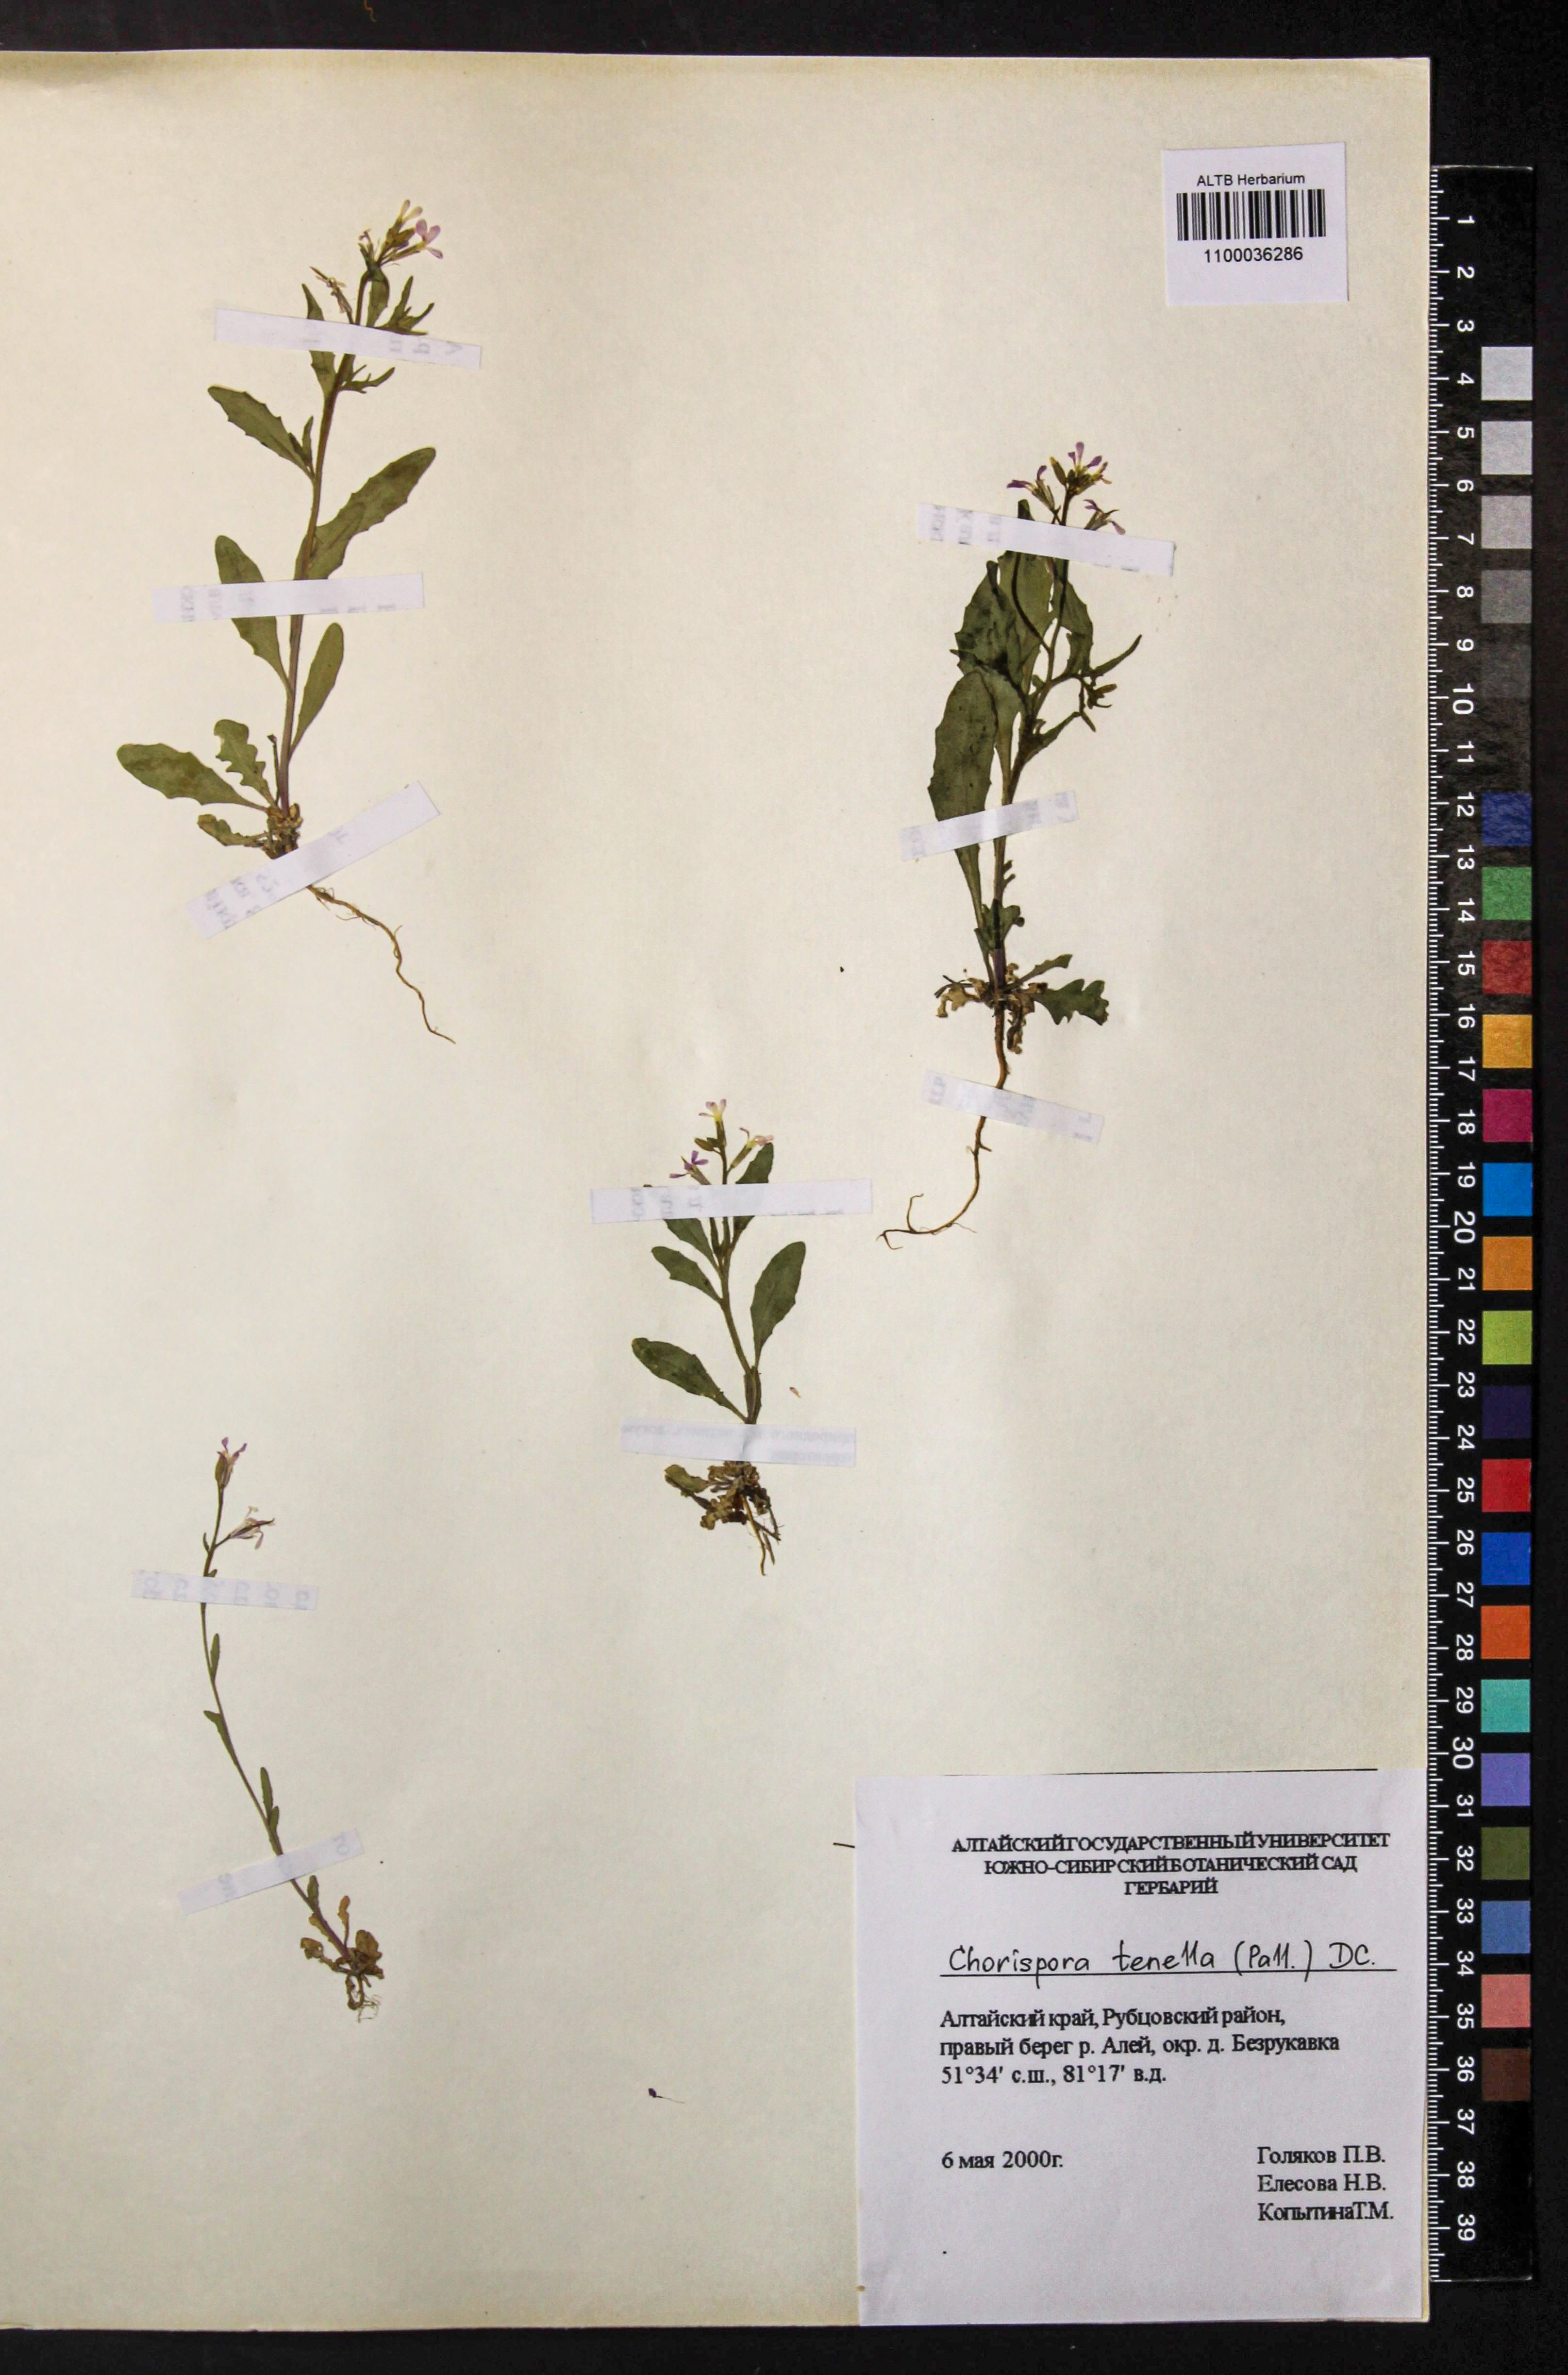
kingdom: Plantae
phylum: Tracheophyta
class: Magnoliopsida
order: Brassicales
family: Brassicaceae
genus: Chorispora
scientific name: Chorispora tenella
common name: Crossflower
